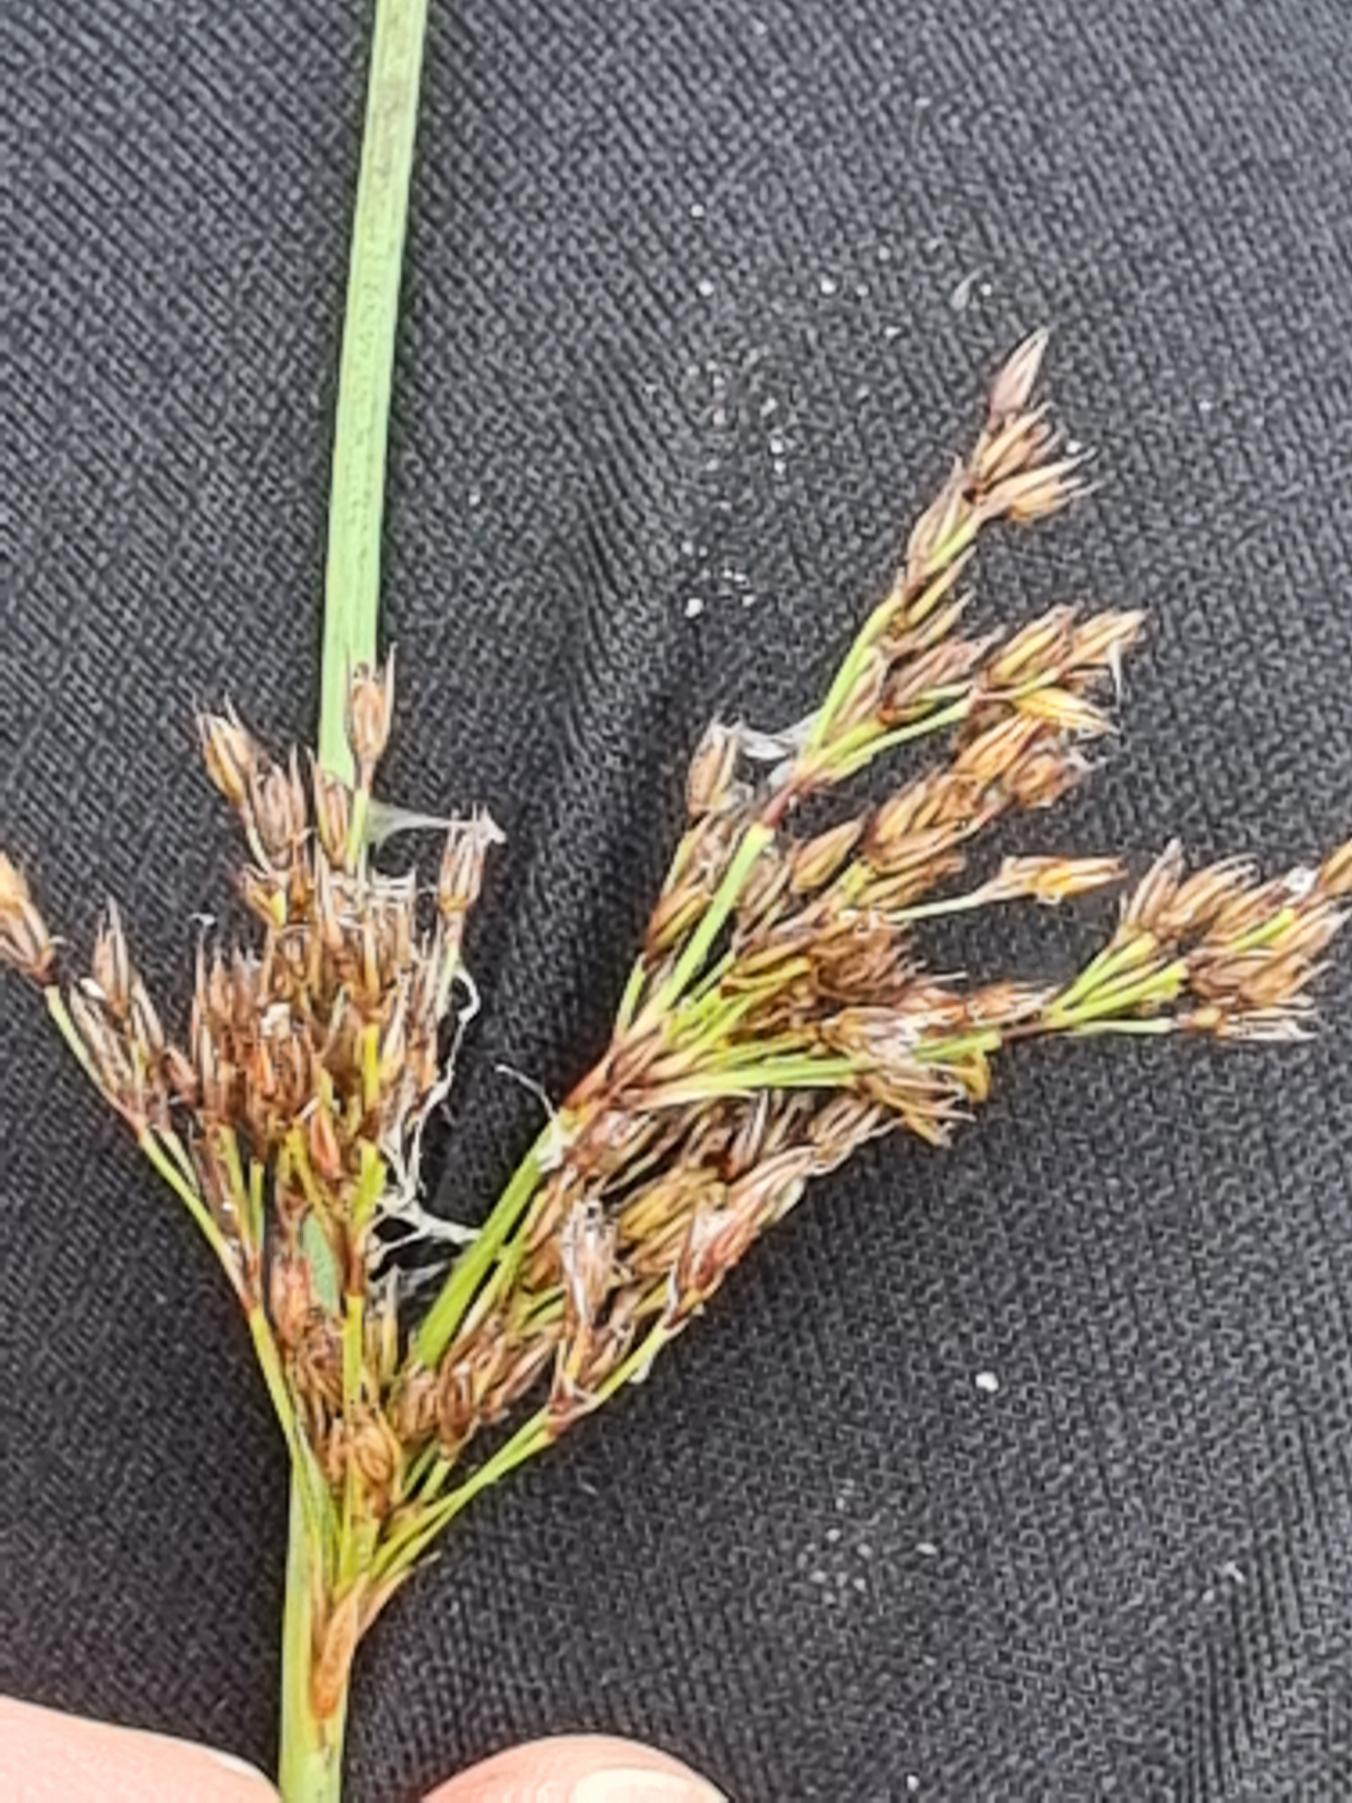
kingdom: Plantae
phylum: Tracheophyta
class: Liliopsida
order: Poales
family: Juncaceae
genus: Juncus
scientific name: Juncus inflexus
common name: Blågrå siv
